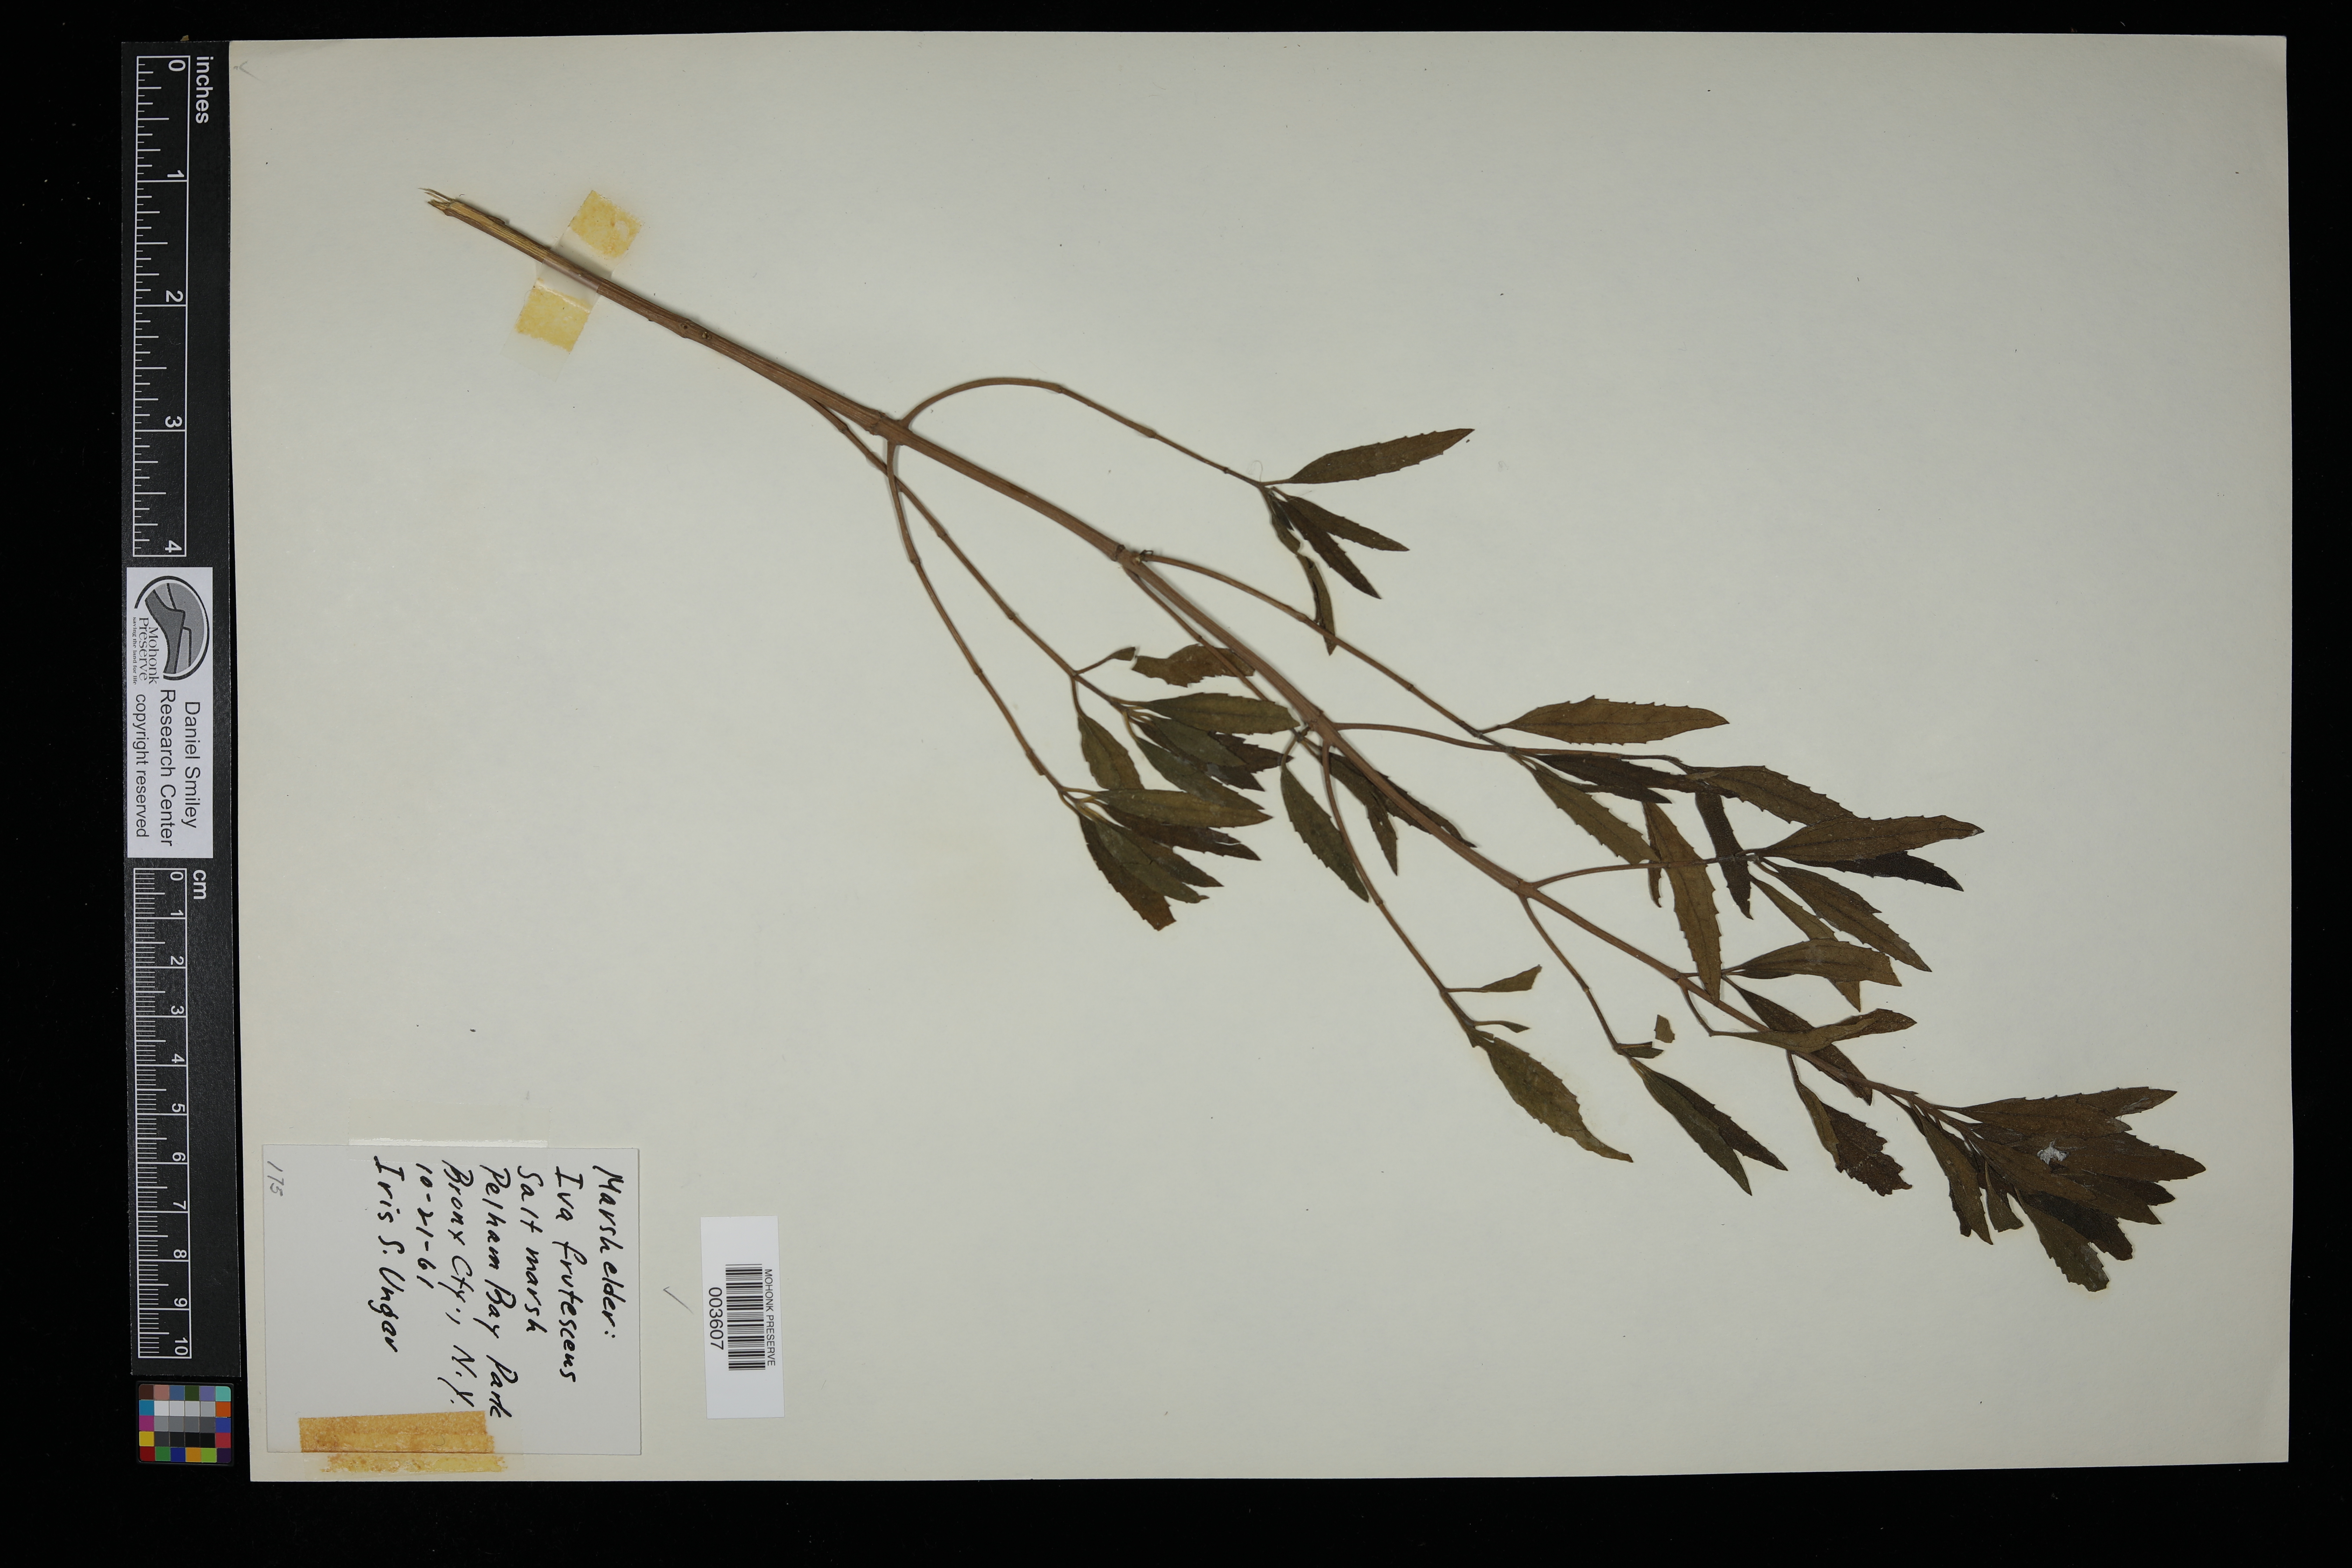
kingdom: Plantae
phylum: Tracheophyta
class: Magnoliopsida
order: Asterales
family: Asteraceae
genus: Iva
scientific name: Iva frutescens
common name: Big-leaved marsh-elder
